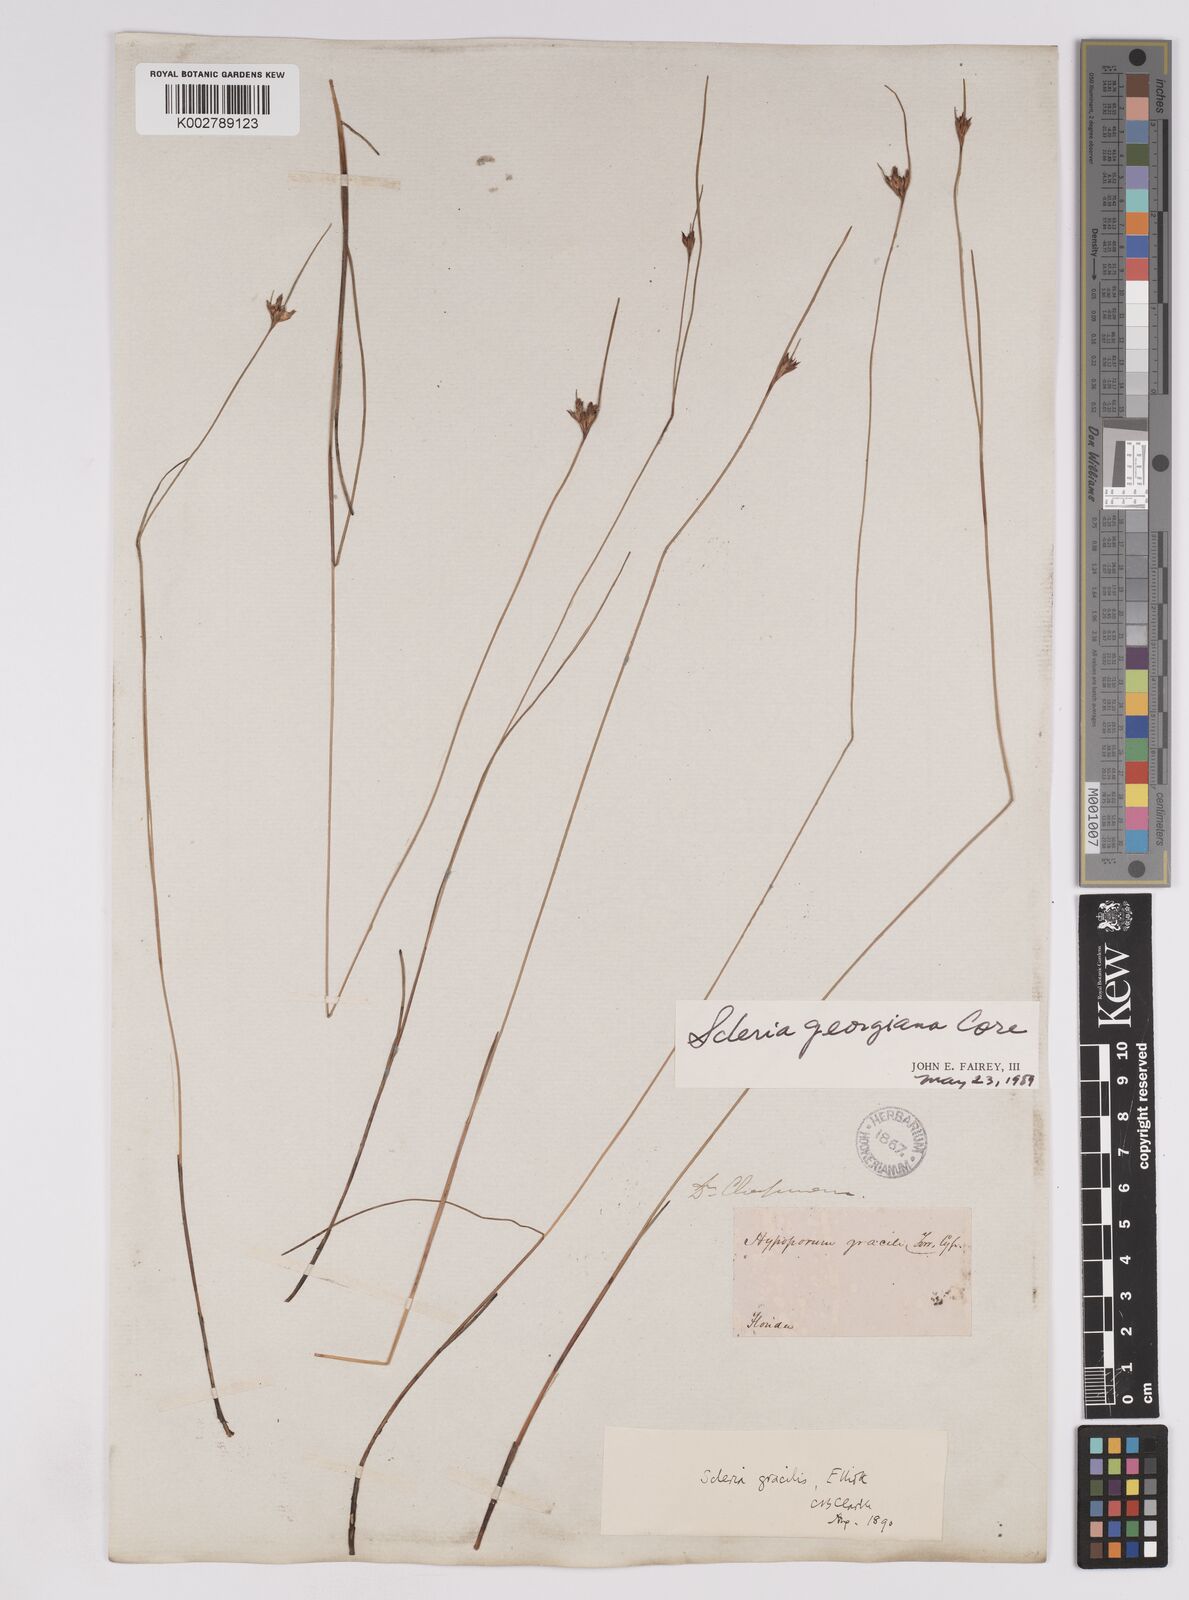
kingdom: Plantae
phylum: Tracheophyta
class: Liliopsida
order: Poales
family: Cyperaceae
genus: Scleria
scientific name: Scleria georgiana
